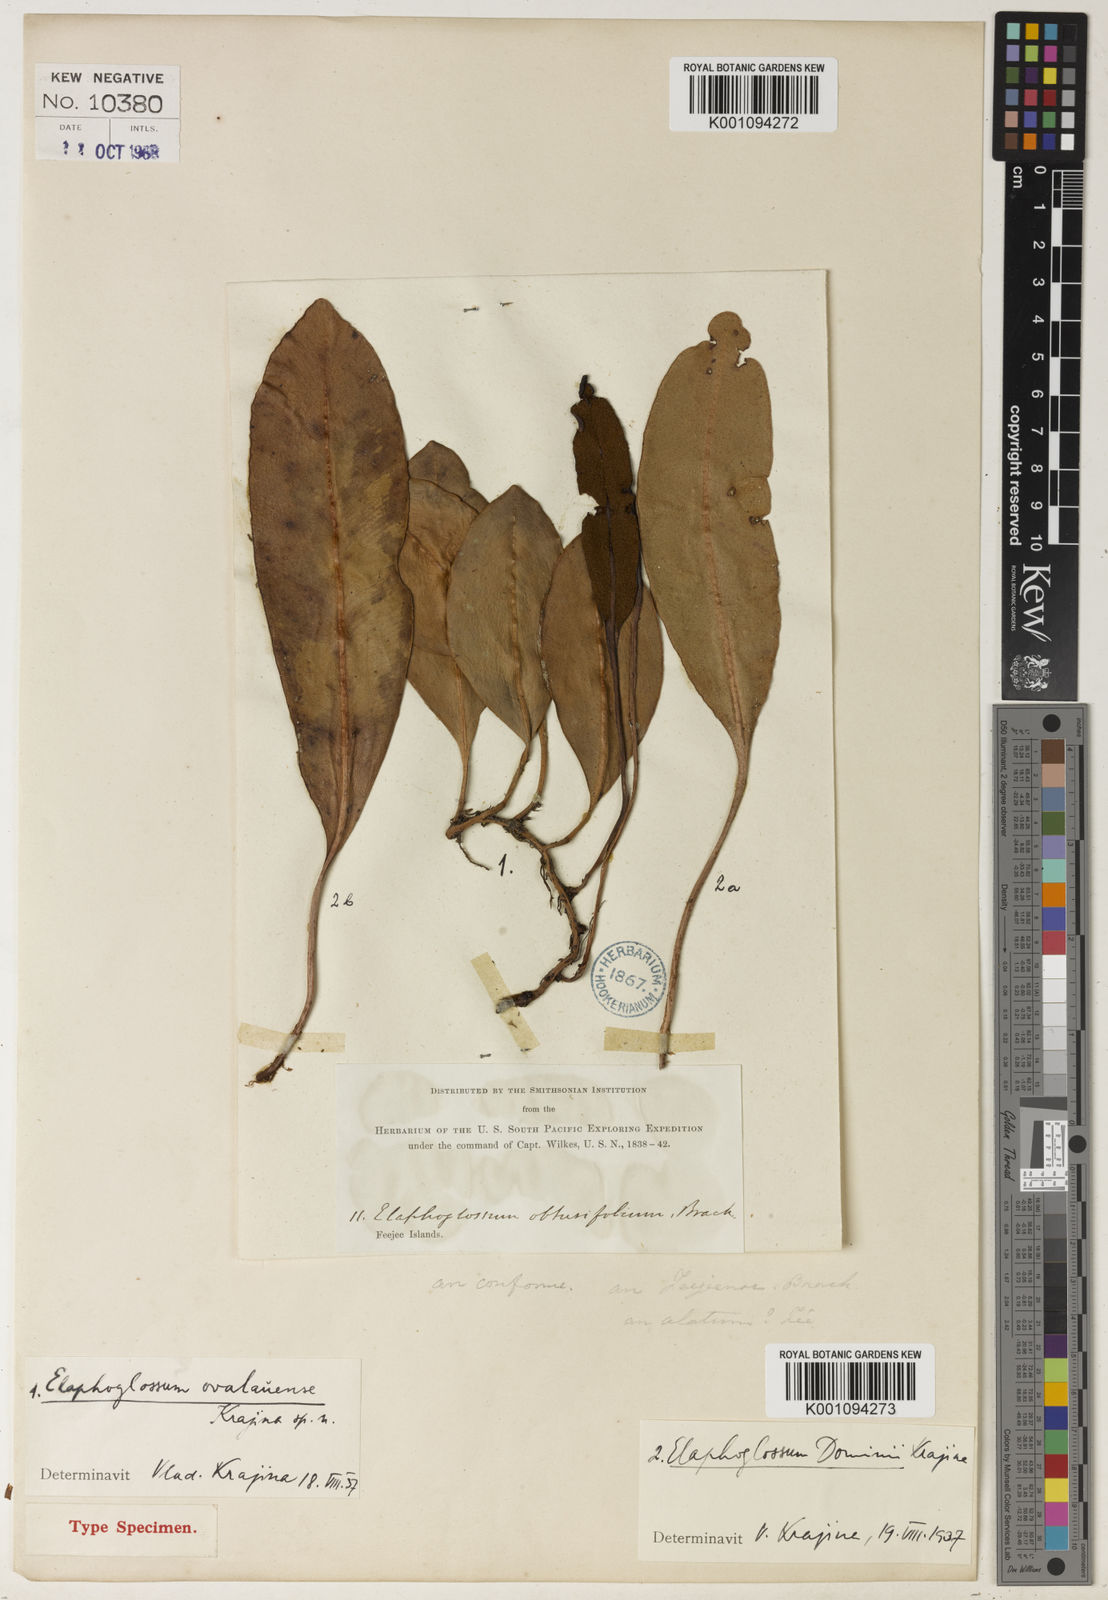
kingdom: Plantae
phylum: Tracheophyta
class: Polypodiopsida
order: Polypodiales
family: Dryopteridaceae
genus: Elaphoglossum
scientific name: Elaphoglossum ovalauense
